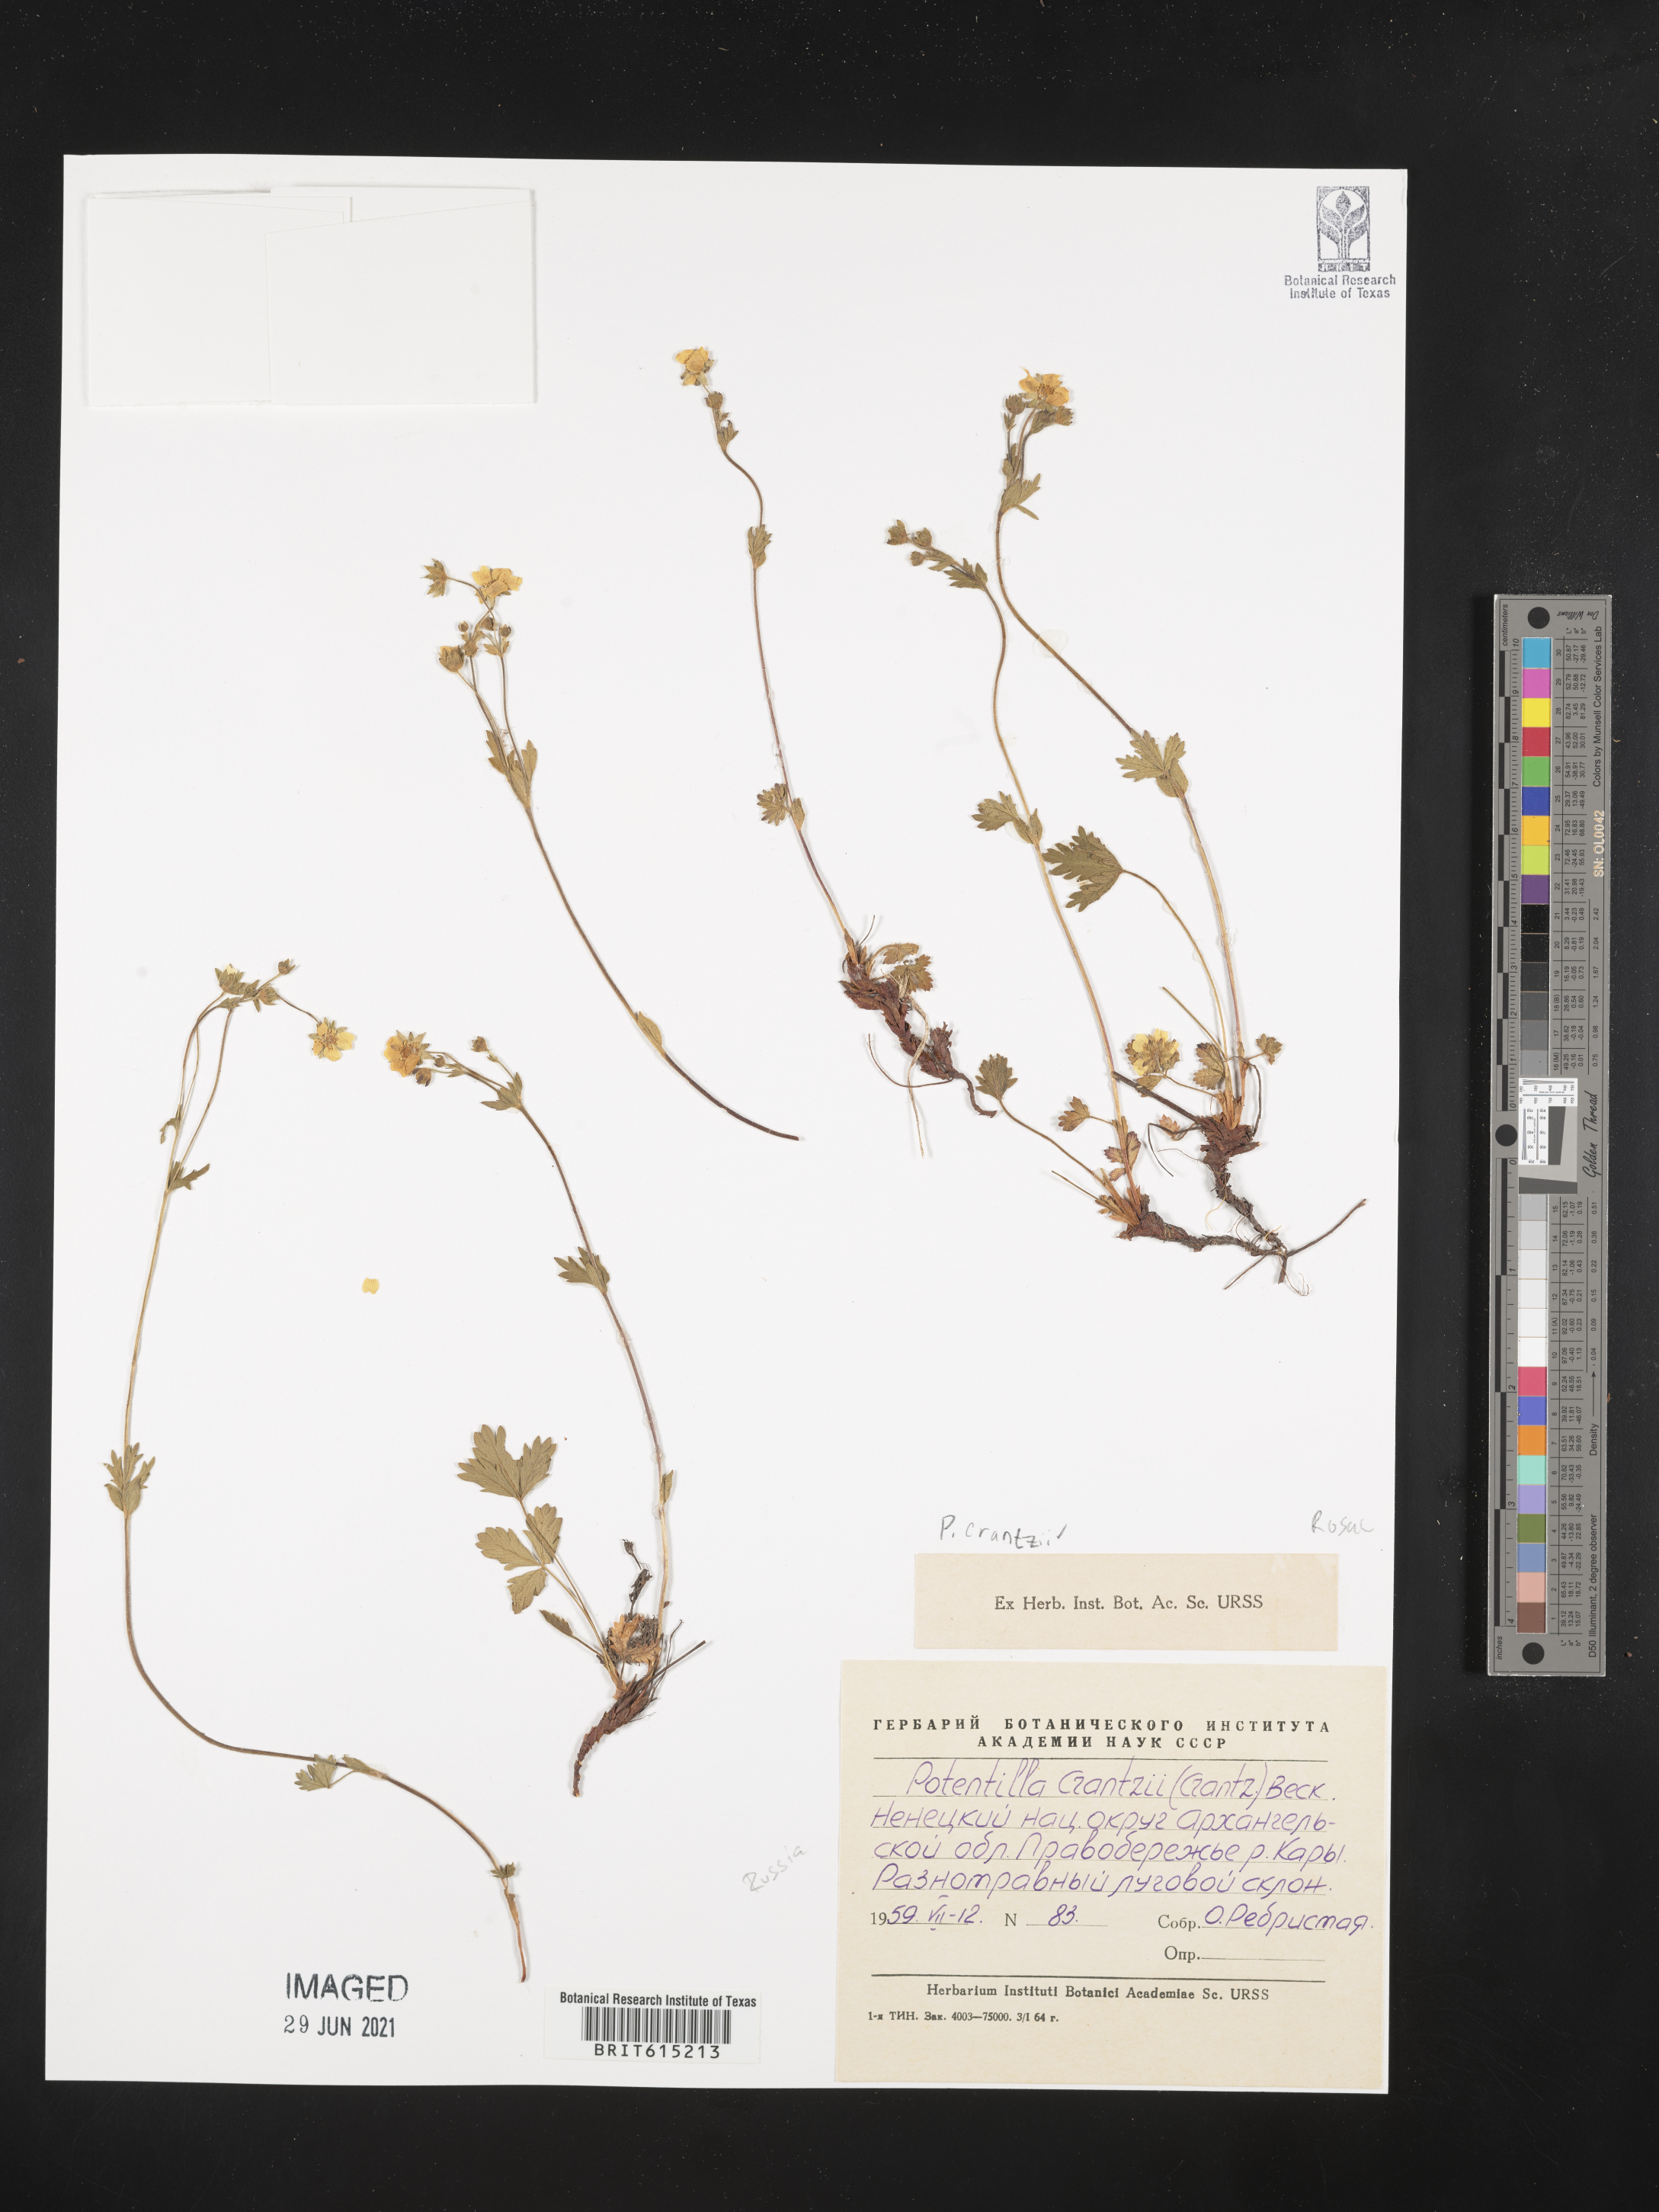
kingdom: Plantae
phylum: Tracheophyta
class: Magnoliopsida
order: Rosales
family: Rosaceae
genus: Potentilla
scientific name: Potentilla crantzii
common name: Alpine cinquefoil
